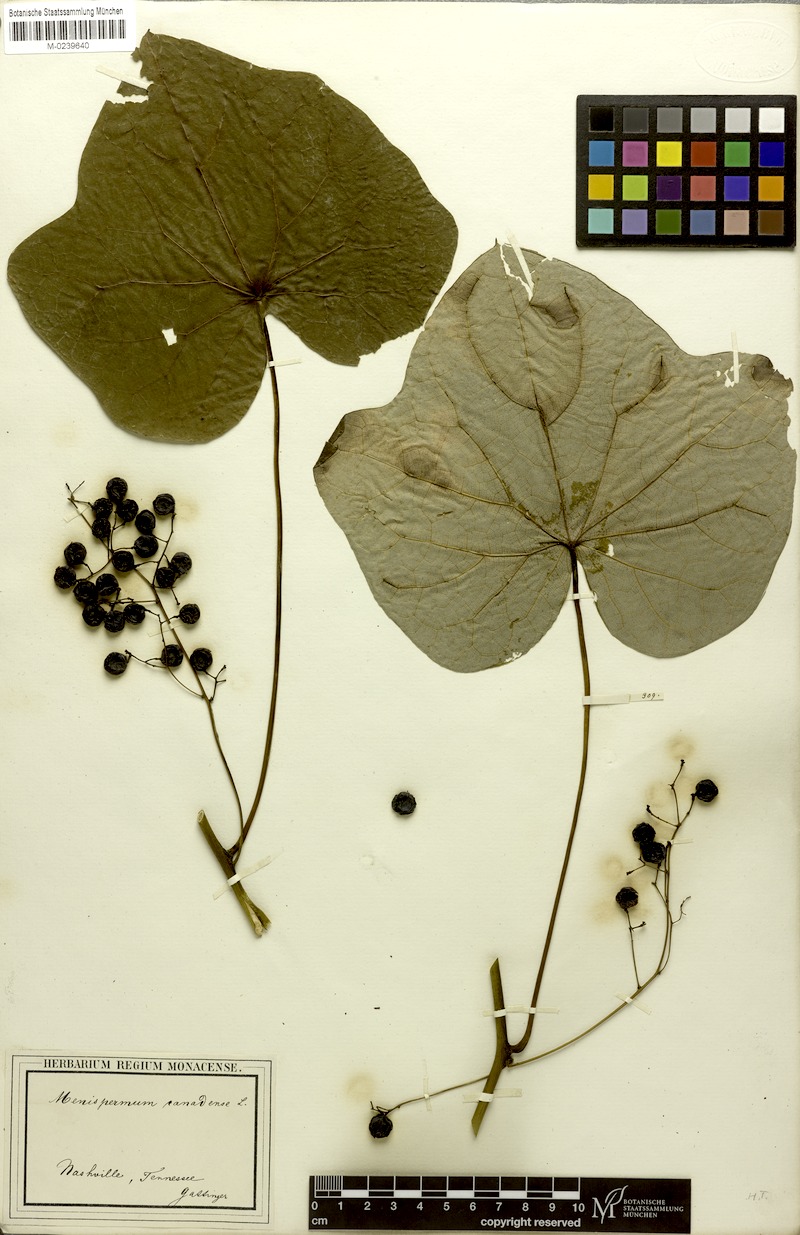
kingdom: Plantae
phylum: Tracheophyta
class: Magnoliopsida
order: Ranunculales
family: Menispermaceae
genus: Menispermum
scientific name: Menispermum canadense
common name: Moonseed
